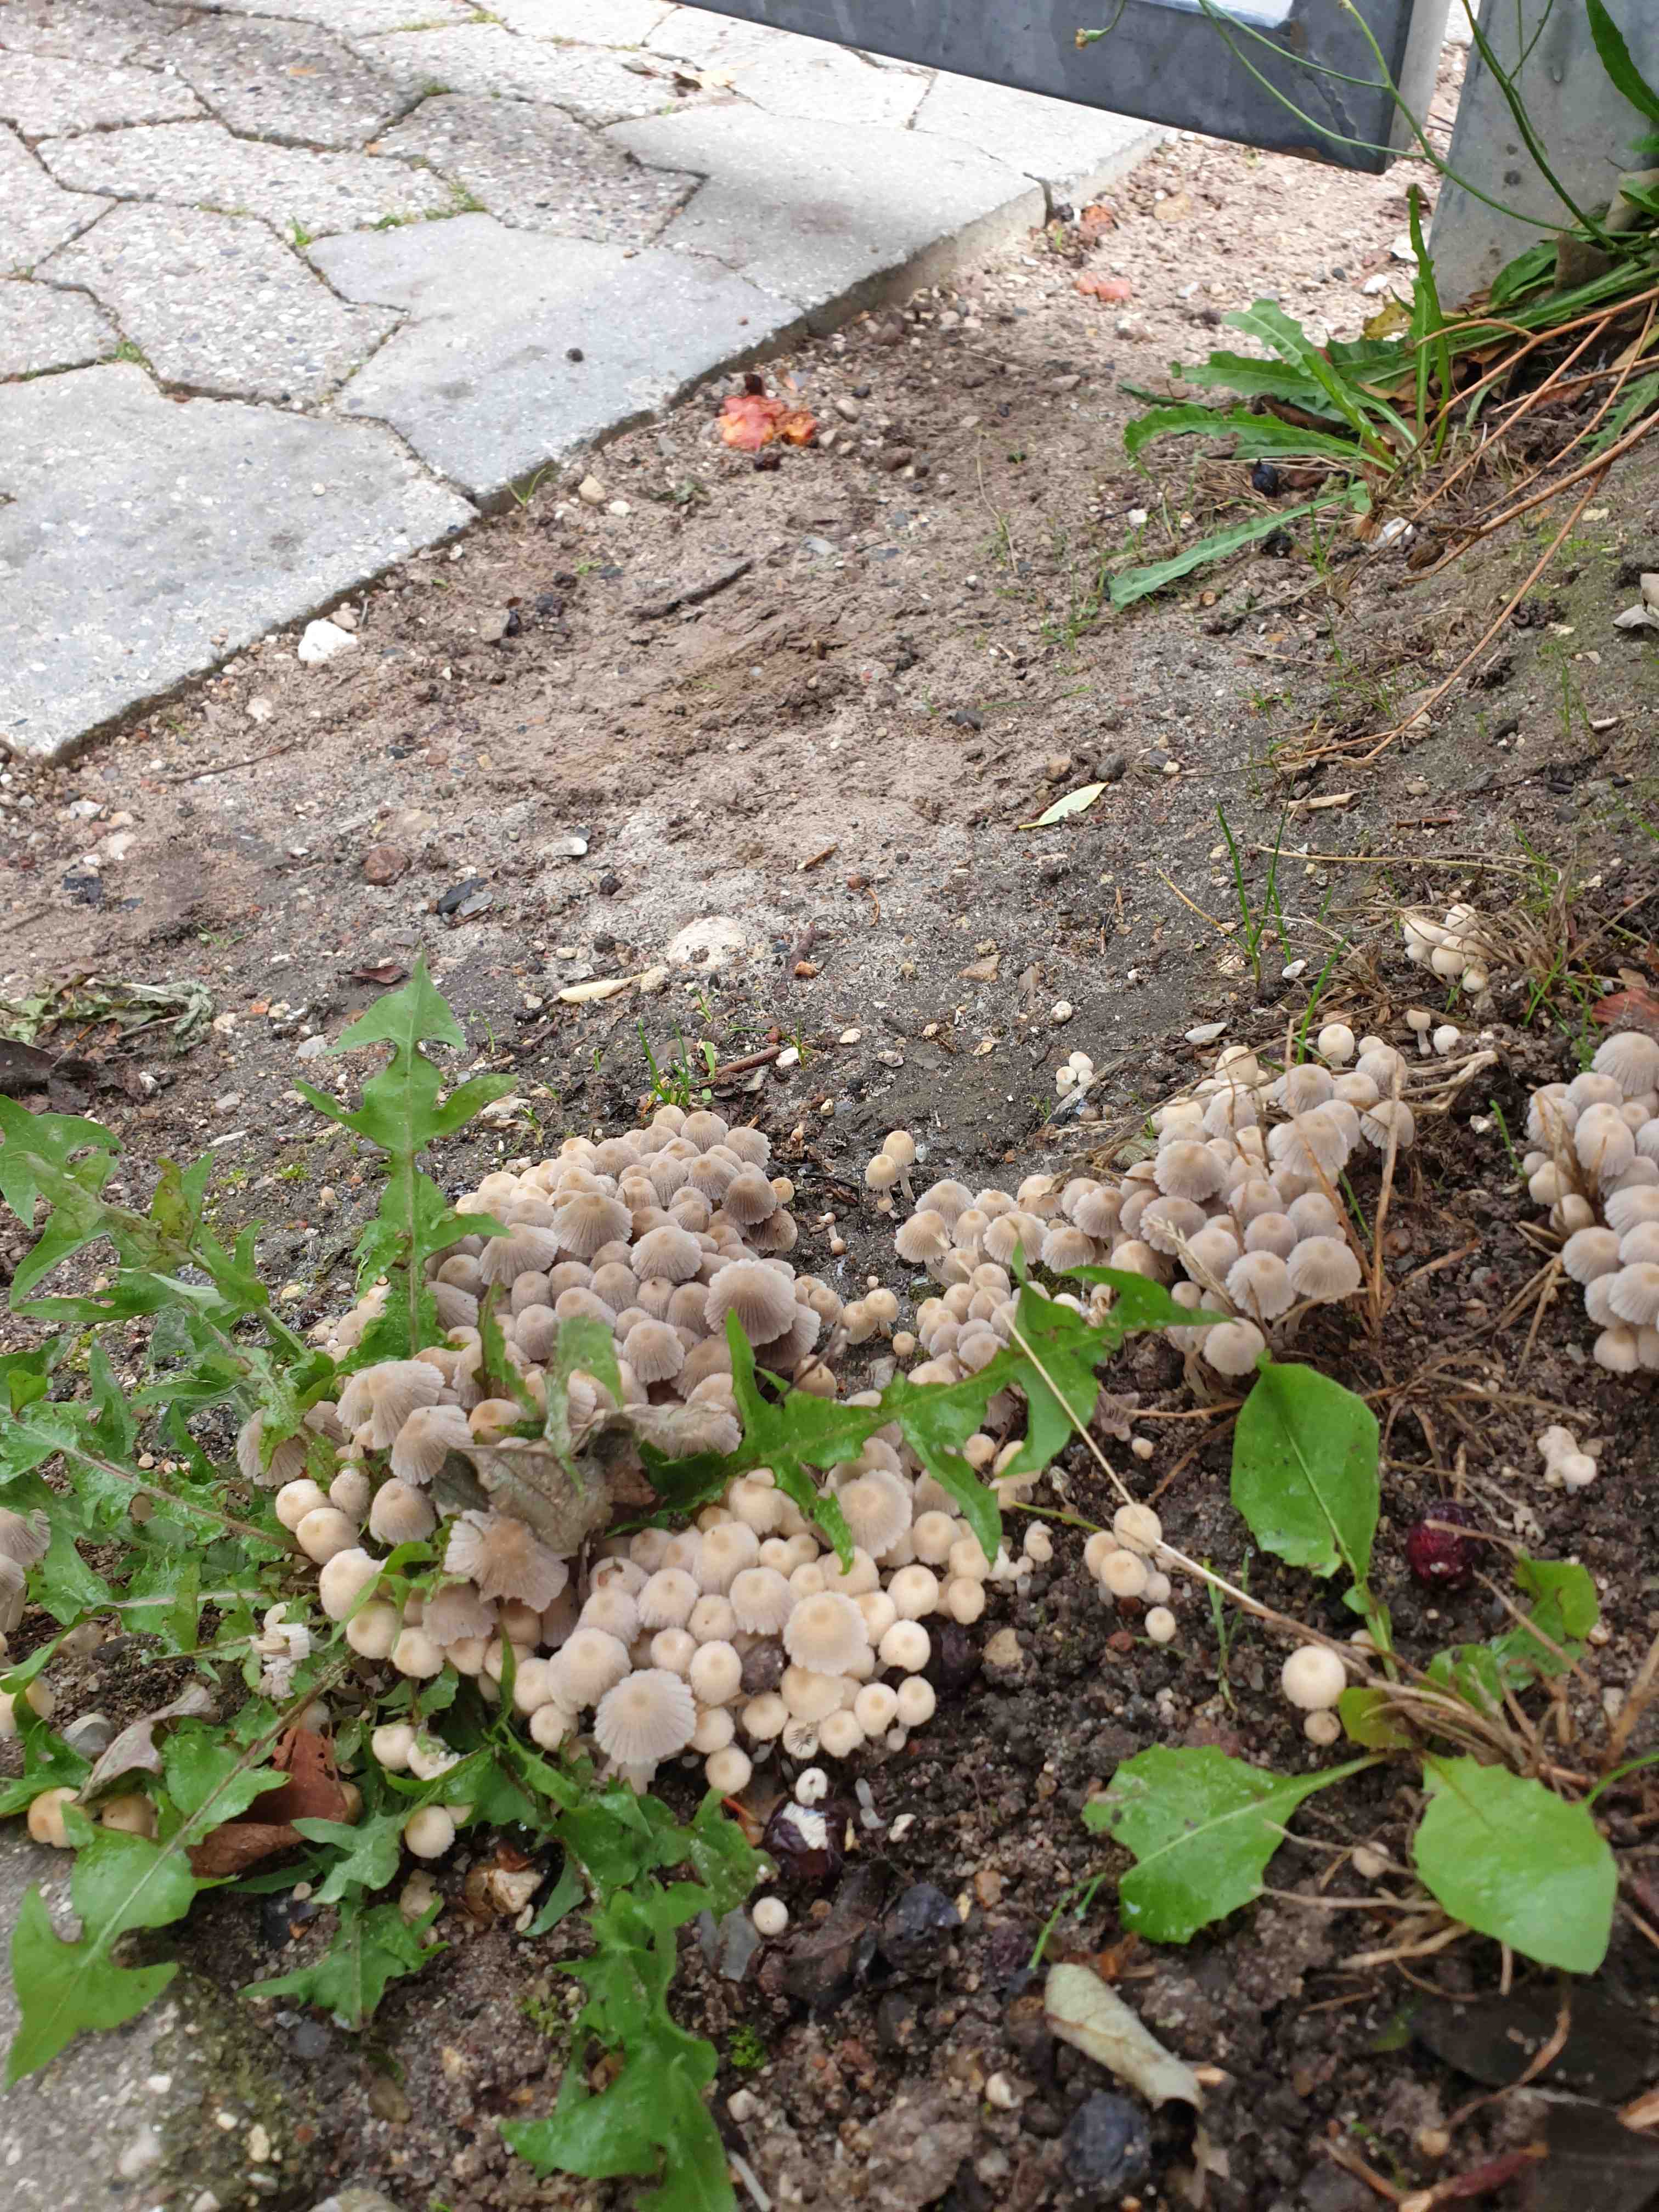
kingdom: Fungi
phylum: Basidiomycota
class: Agaricomycetes
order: Agaricales
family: Psathyrellaceae
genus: Coprinellus
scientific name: Coprinellus disseminatus
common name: bredsået blækhat
